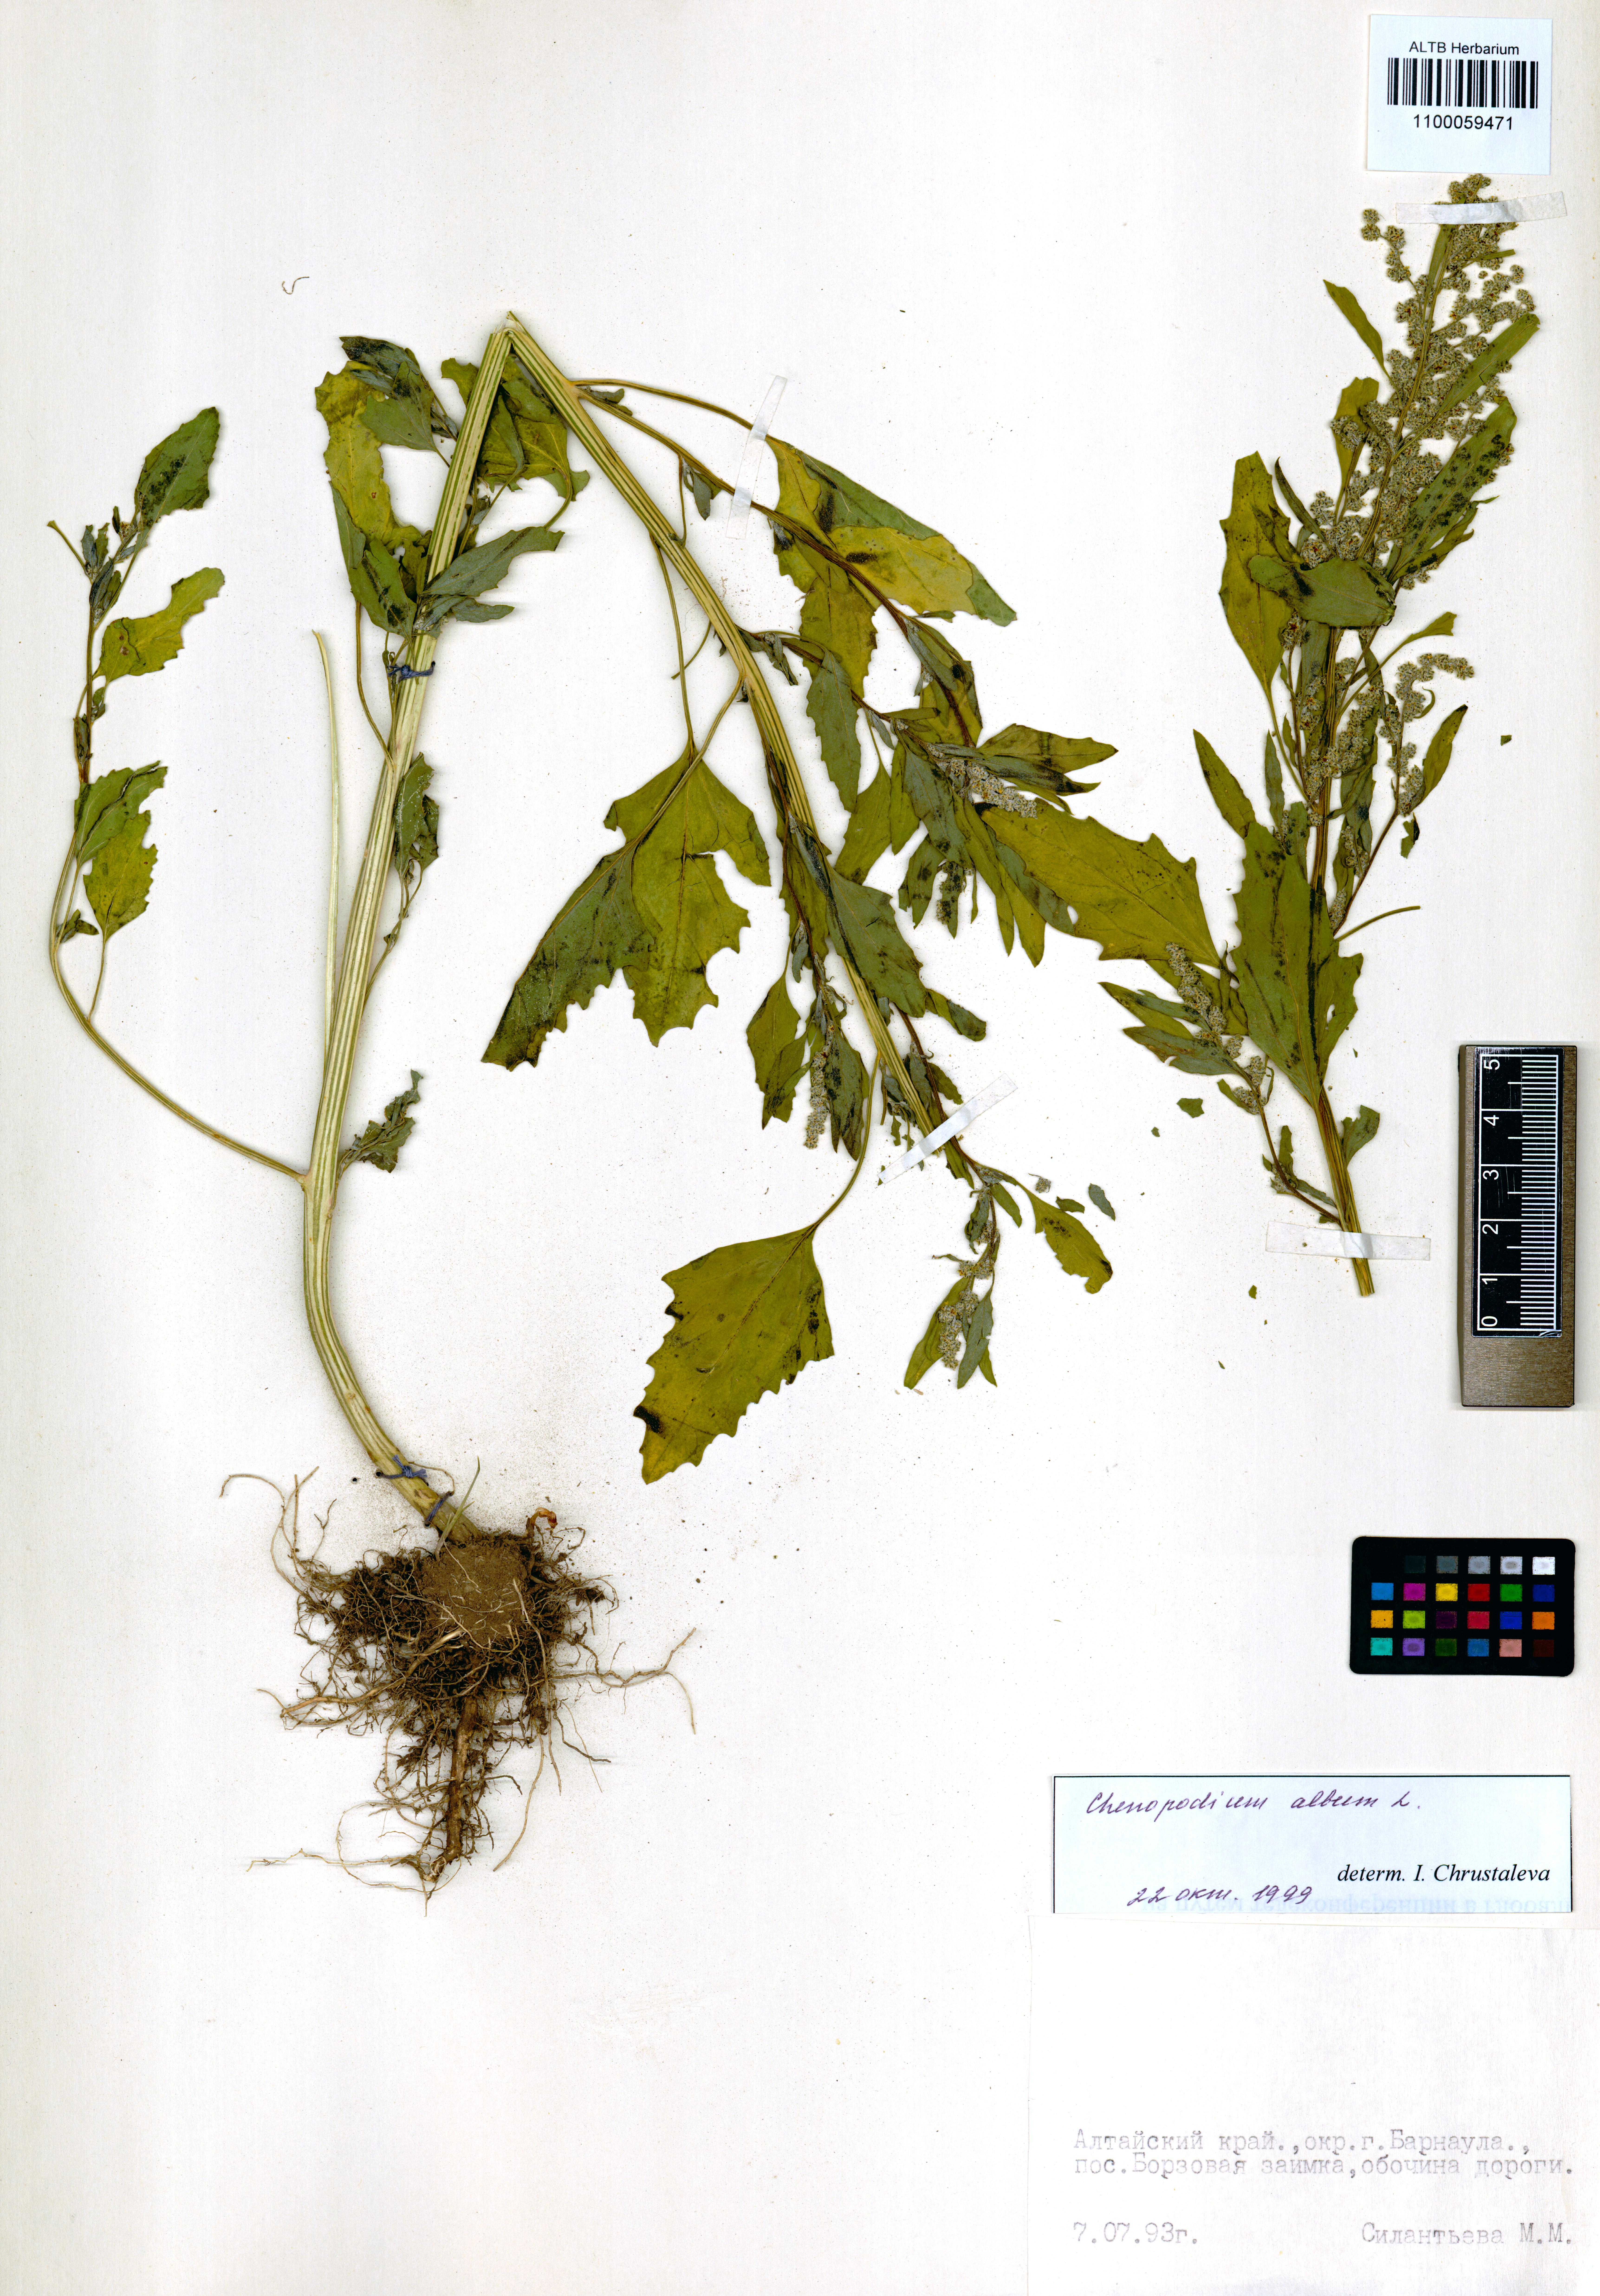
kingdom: Plantae
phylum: Tracheophyta
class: Magnoliopsida
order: Caryophyllales
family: Amaranthaceae
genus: Chenopodium
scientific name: Chenopodium album
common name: Fat-hen
